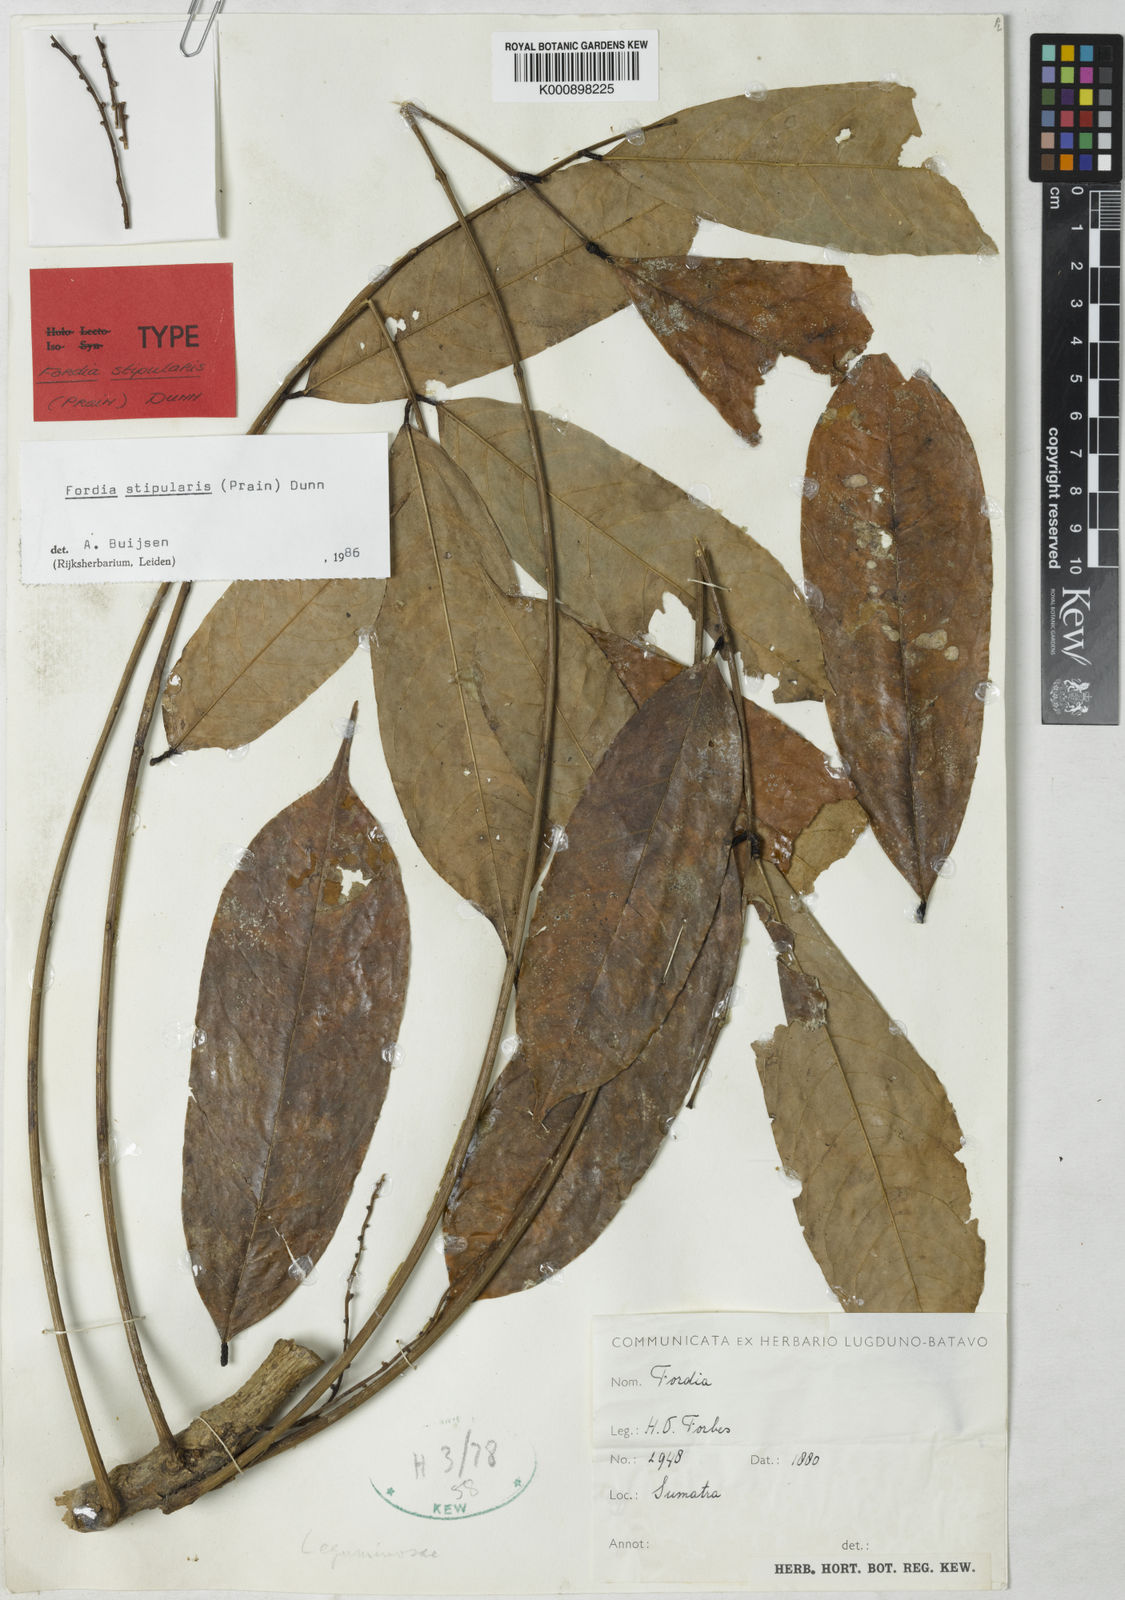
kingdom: Plantae
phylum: Tracheophyta
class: Magnoliopsida
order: Fabales
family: Fabaceae
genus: Fordia
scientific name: Fordia stipularis
